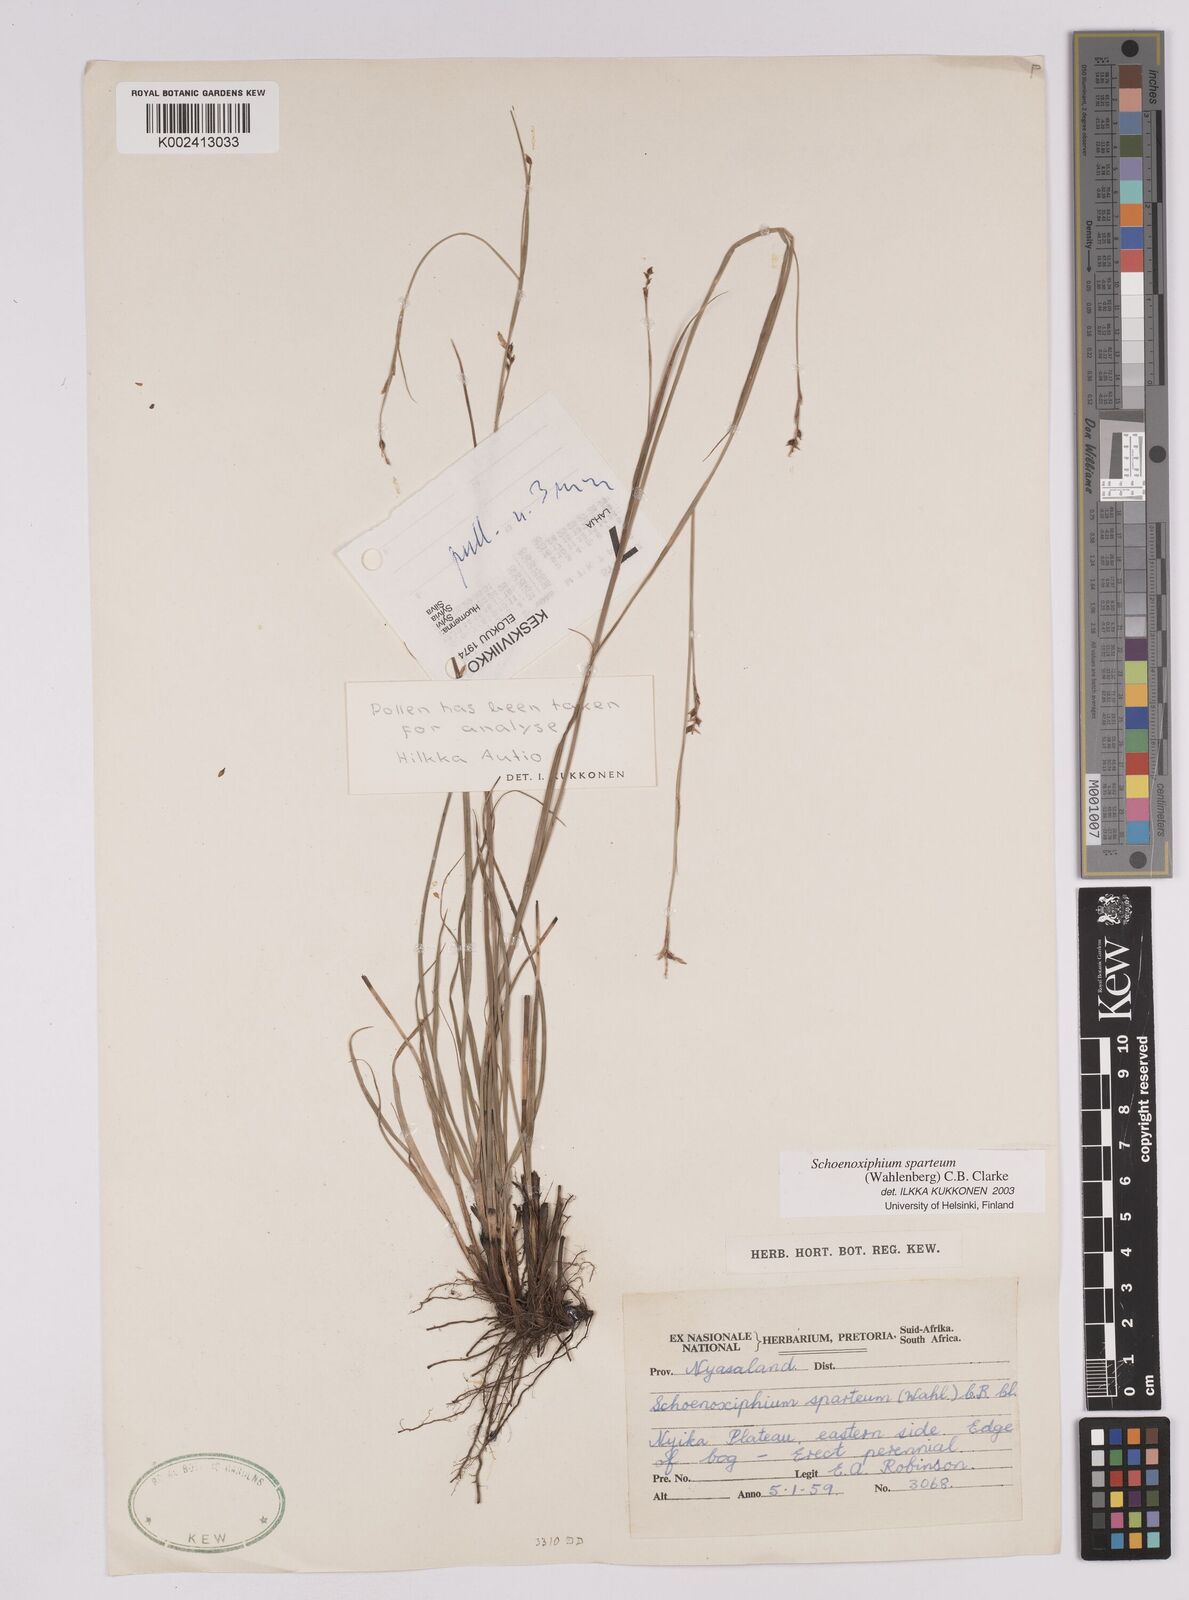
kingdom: Plantae
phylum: Tracheophyta
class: Liliopsida
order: Poales
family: Cyperaceae
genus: Carex
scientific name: Carex spartea
